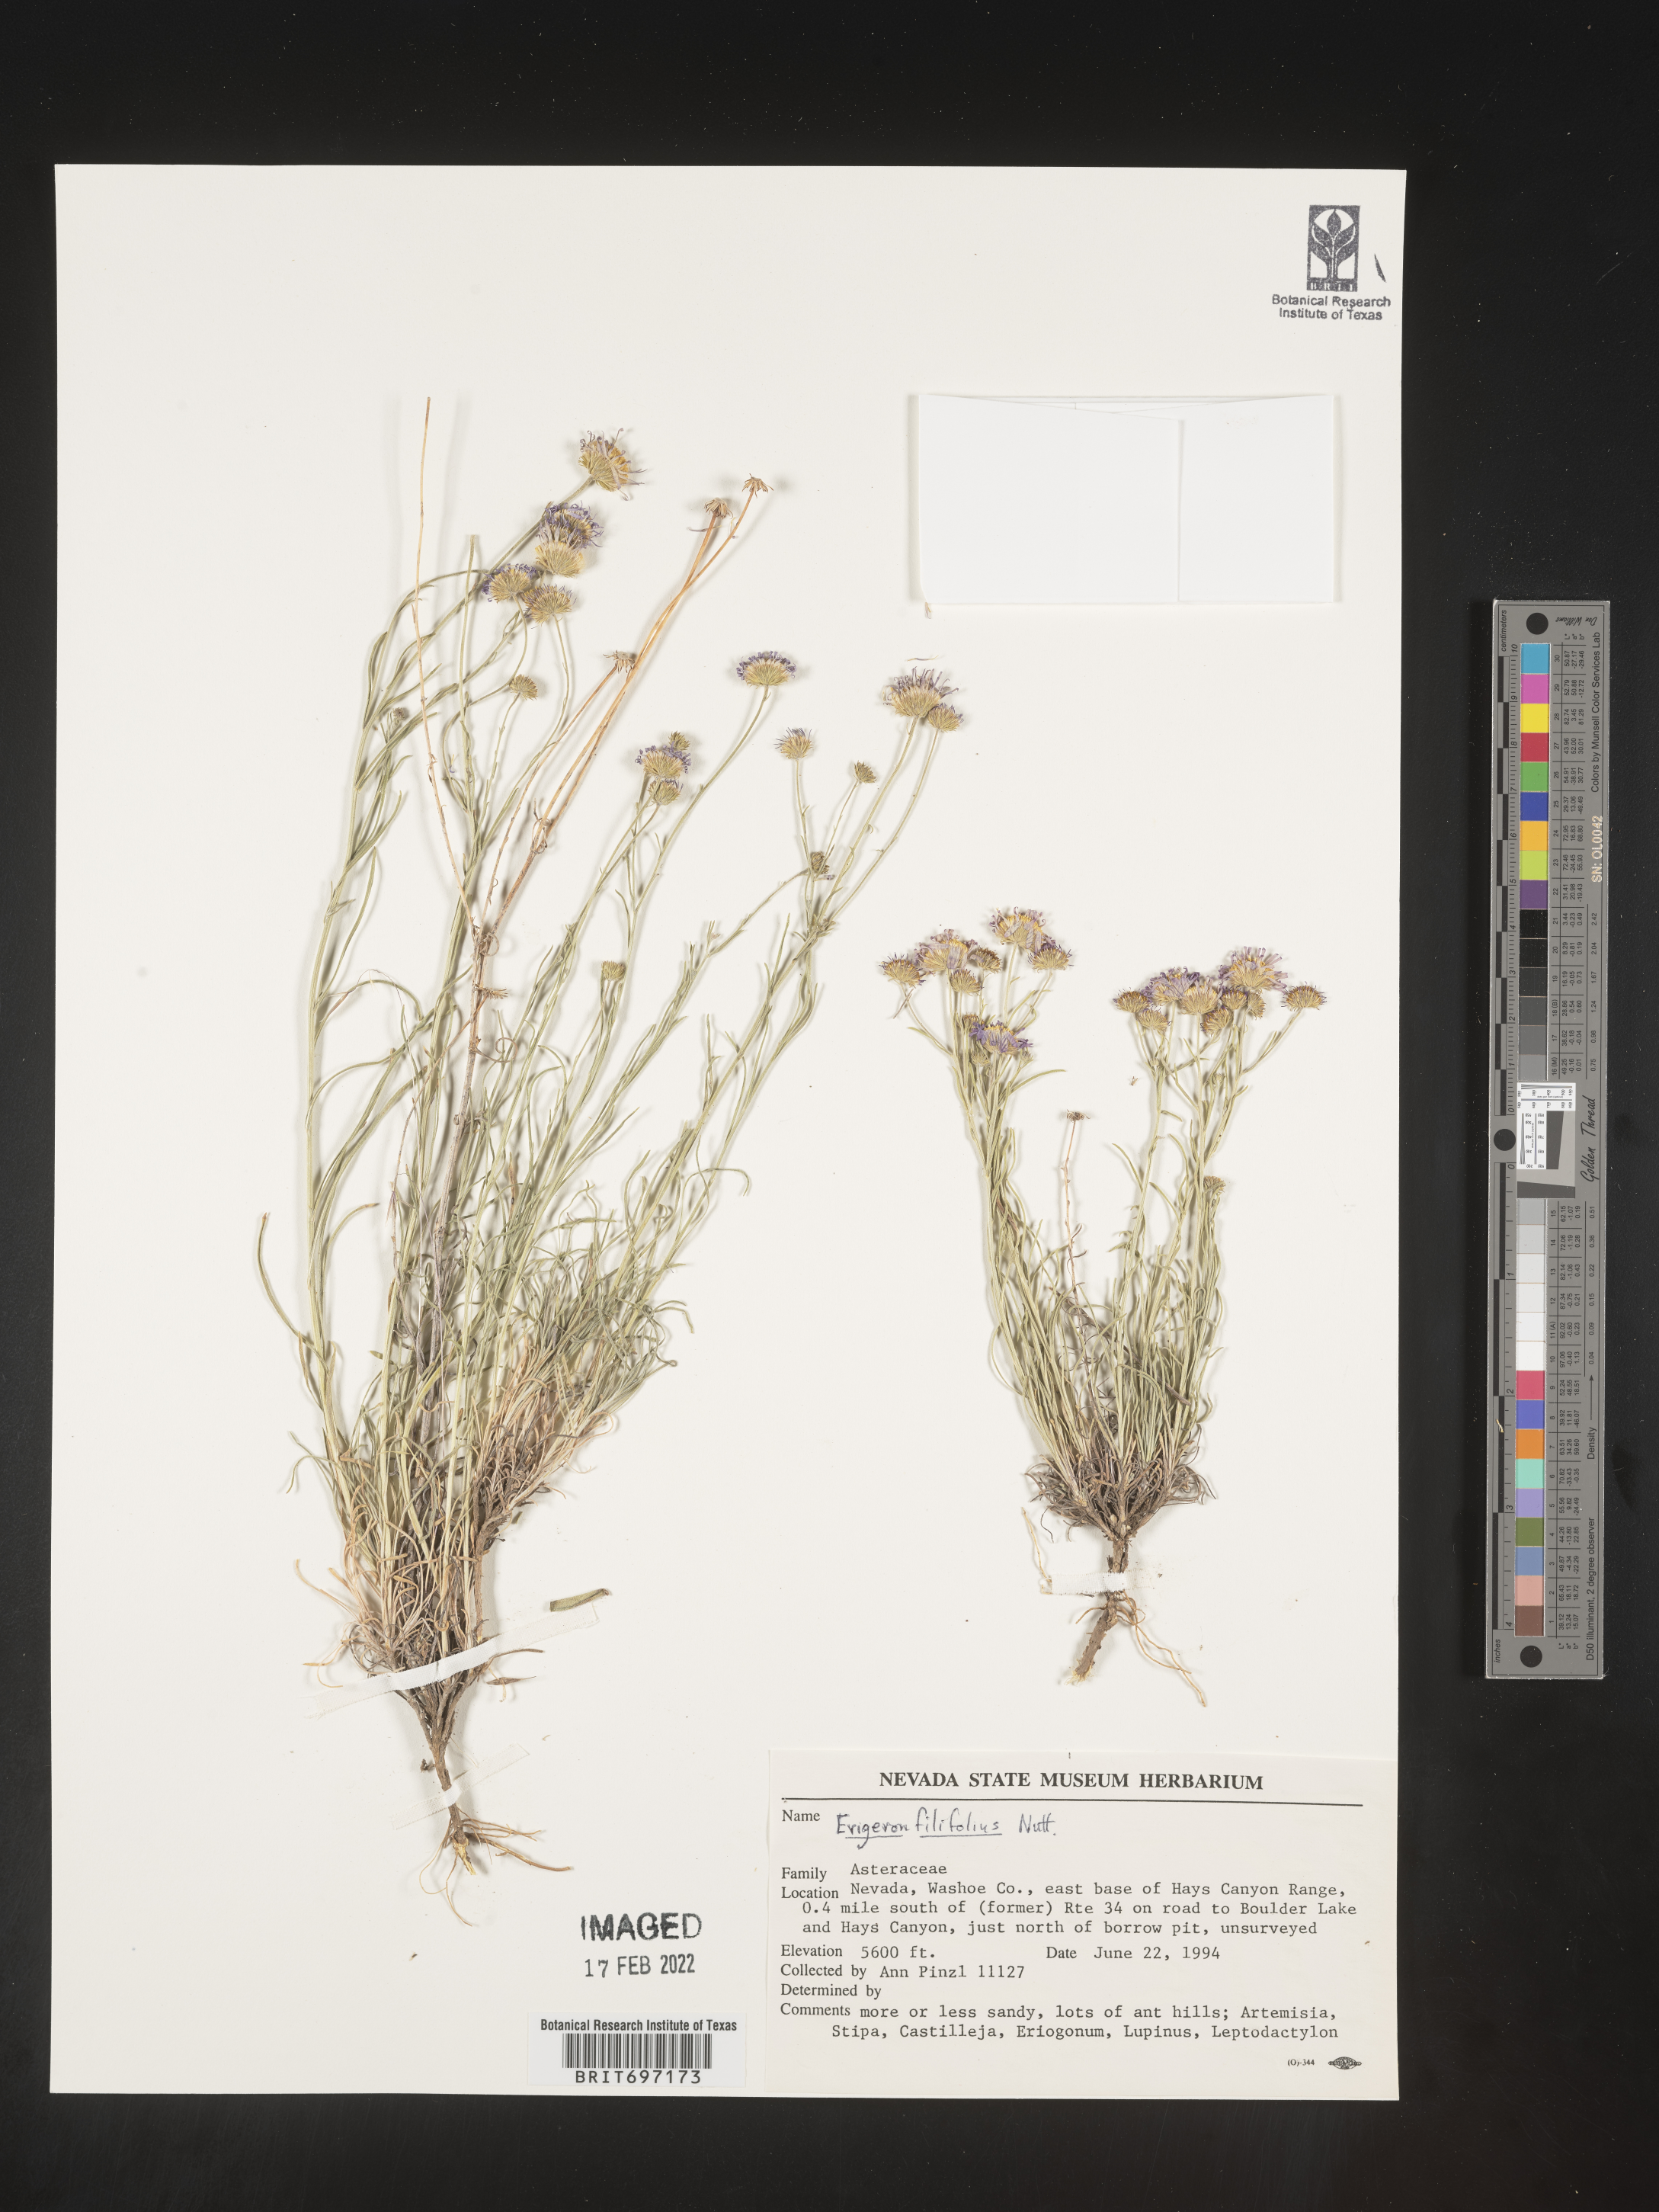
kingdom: Plantae
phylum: Tracheophyta
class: Magnoliopsida
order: Asterales
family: Asteraceae
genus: Erigeron
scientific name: Erigeron filifolius
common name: Threadleaf fleabane
